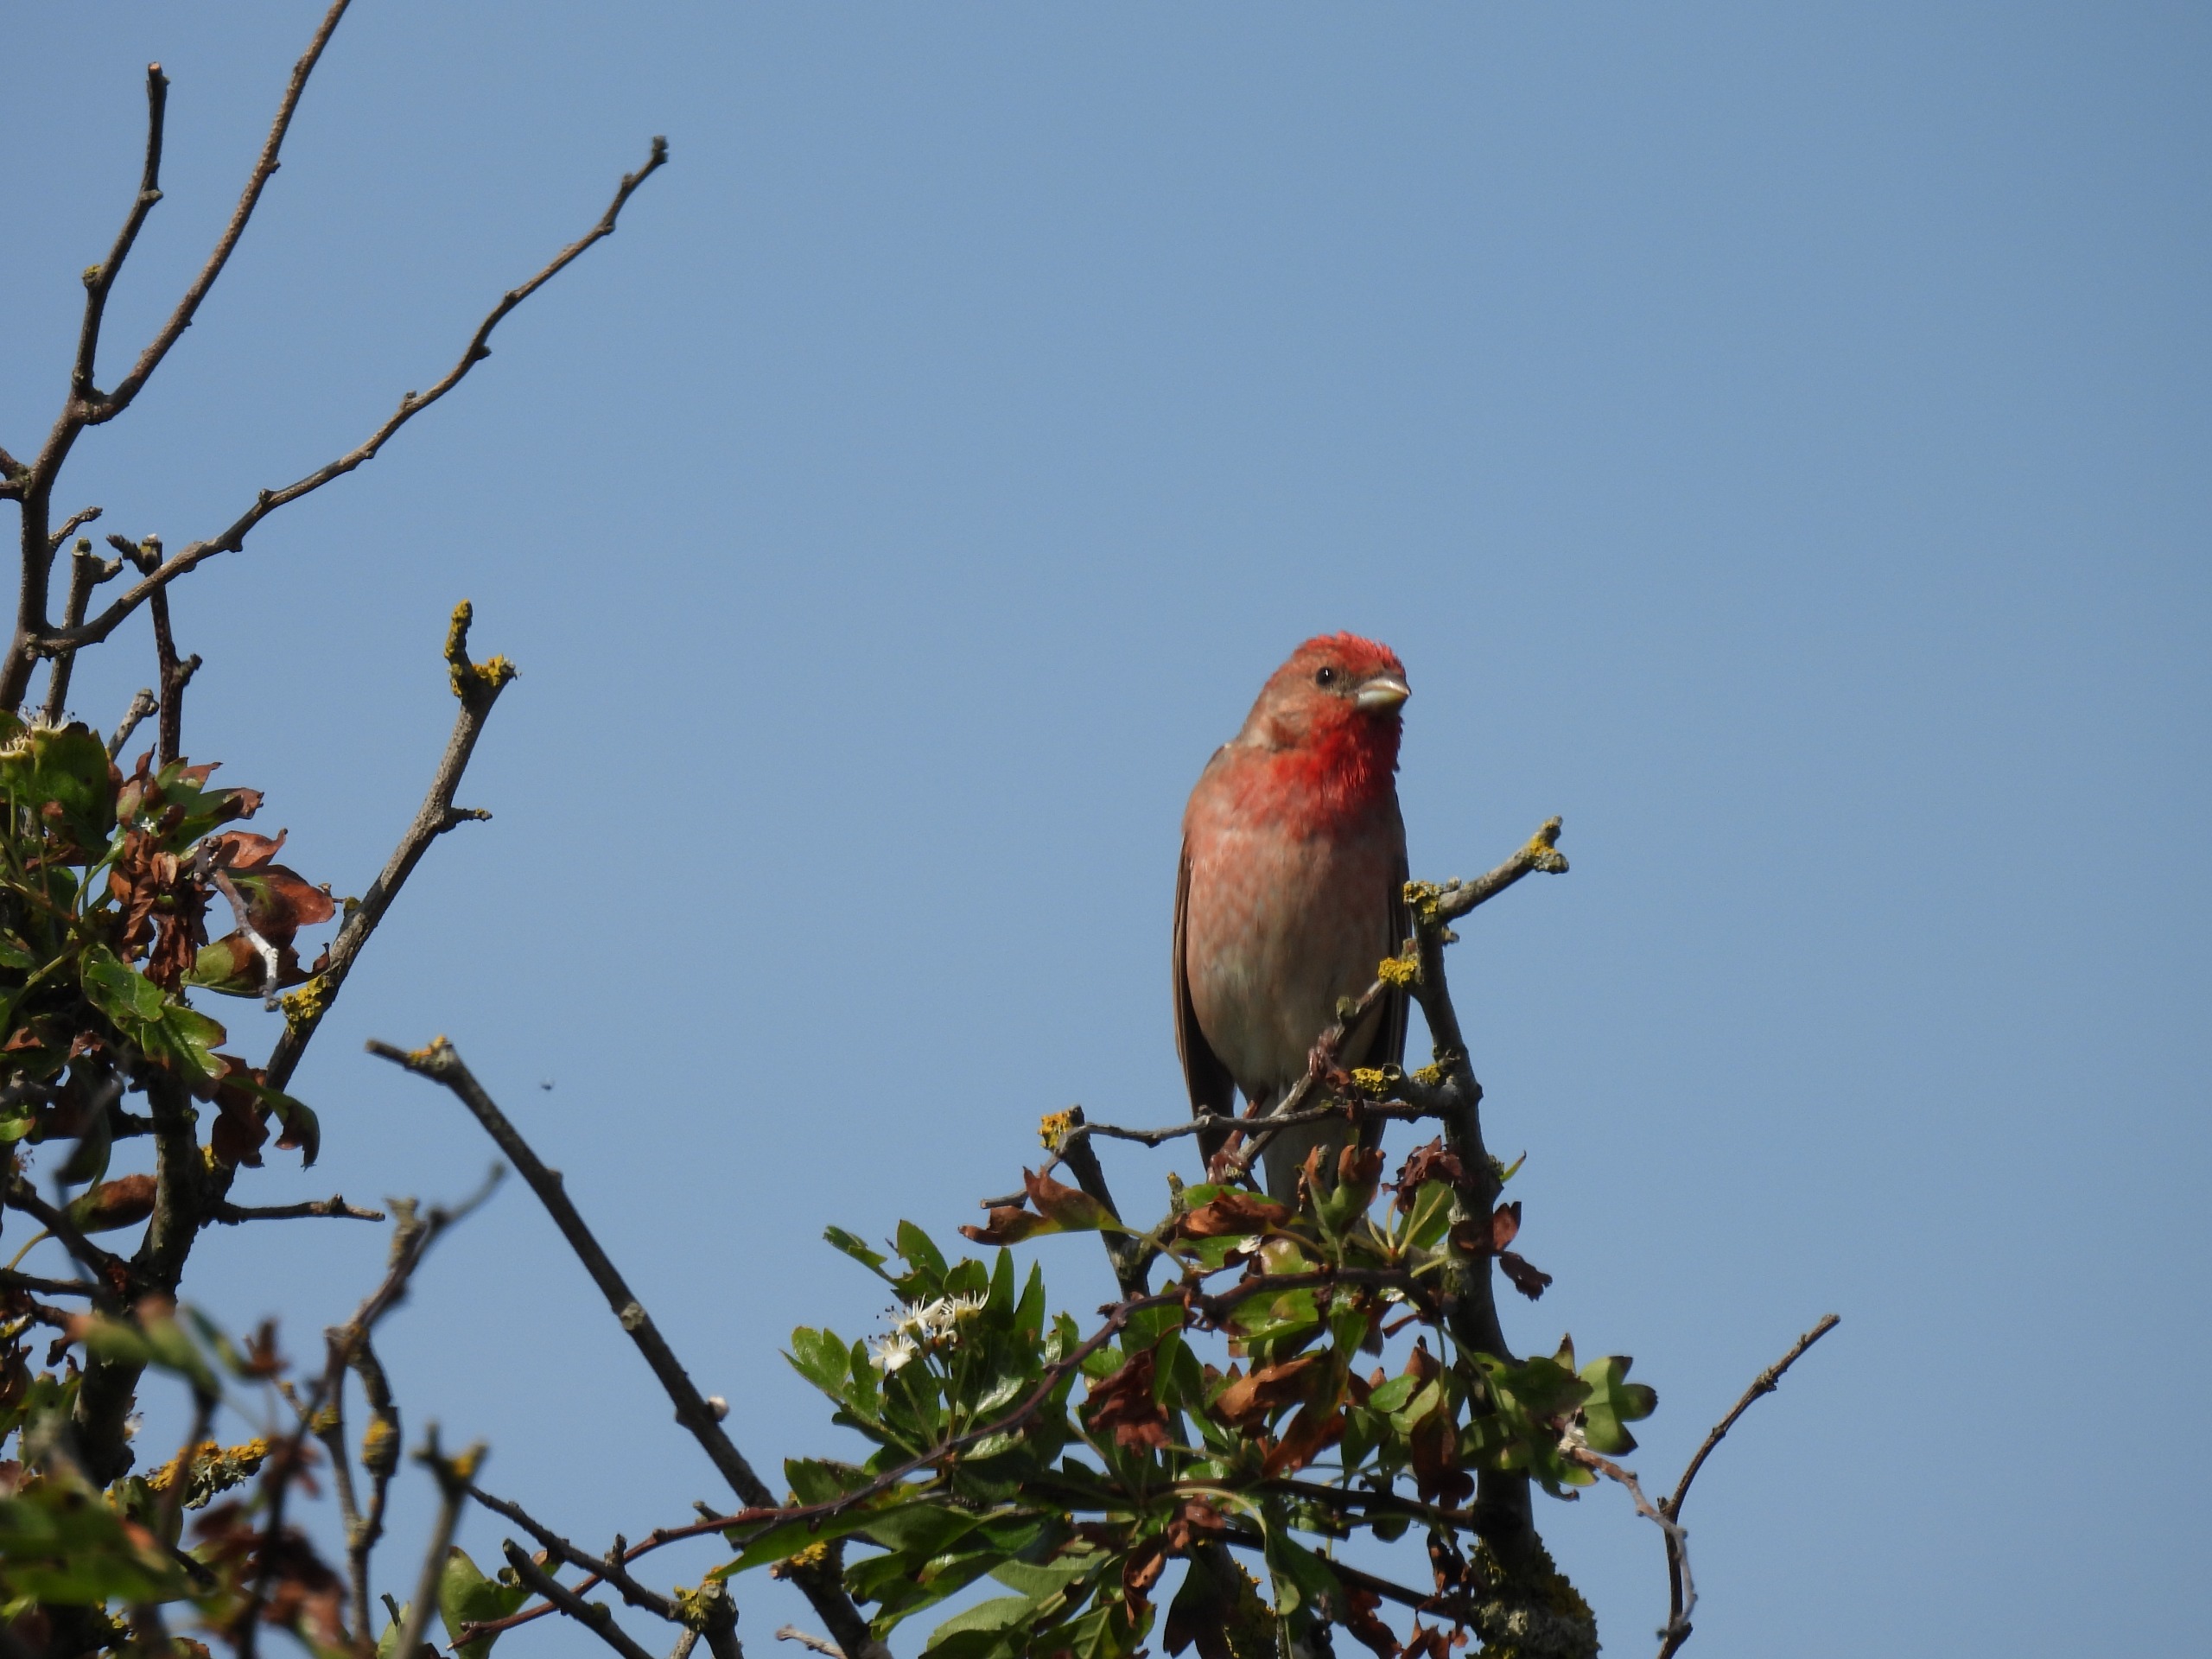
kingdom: Animalia
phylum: Chordata
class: Aves
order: Passeriformes
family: Fringillidae
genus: Carpodacus
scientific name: Carpodacus erythrinus
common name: Karmindompap
